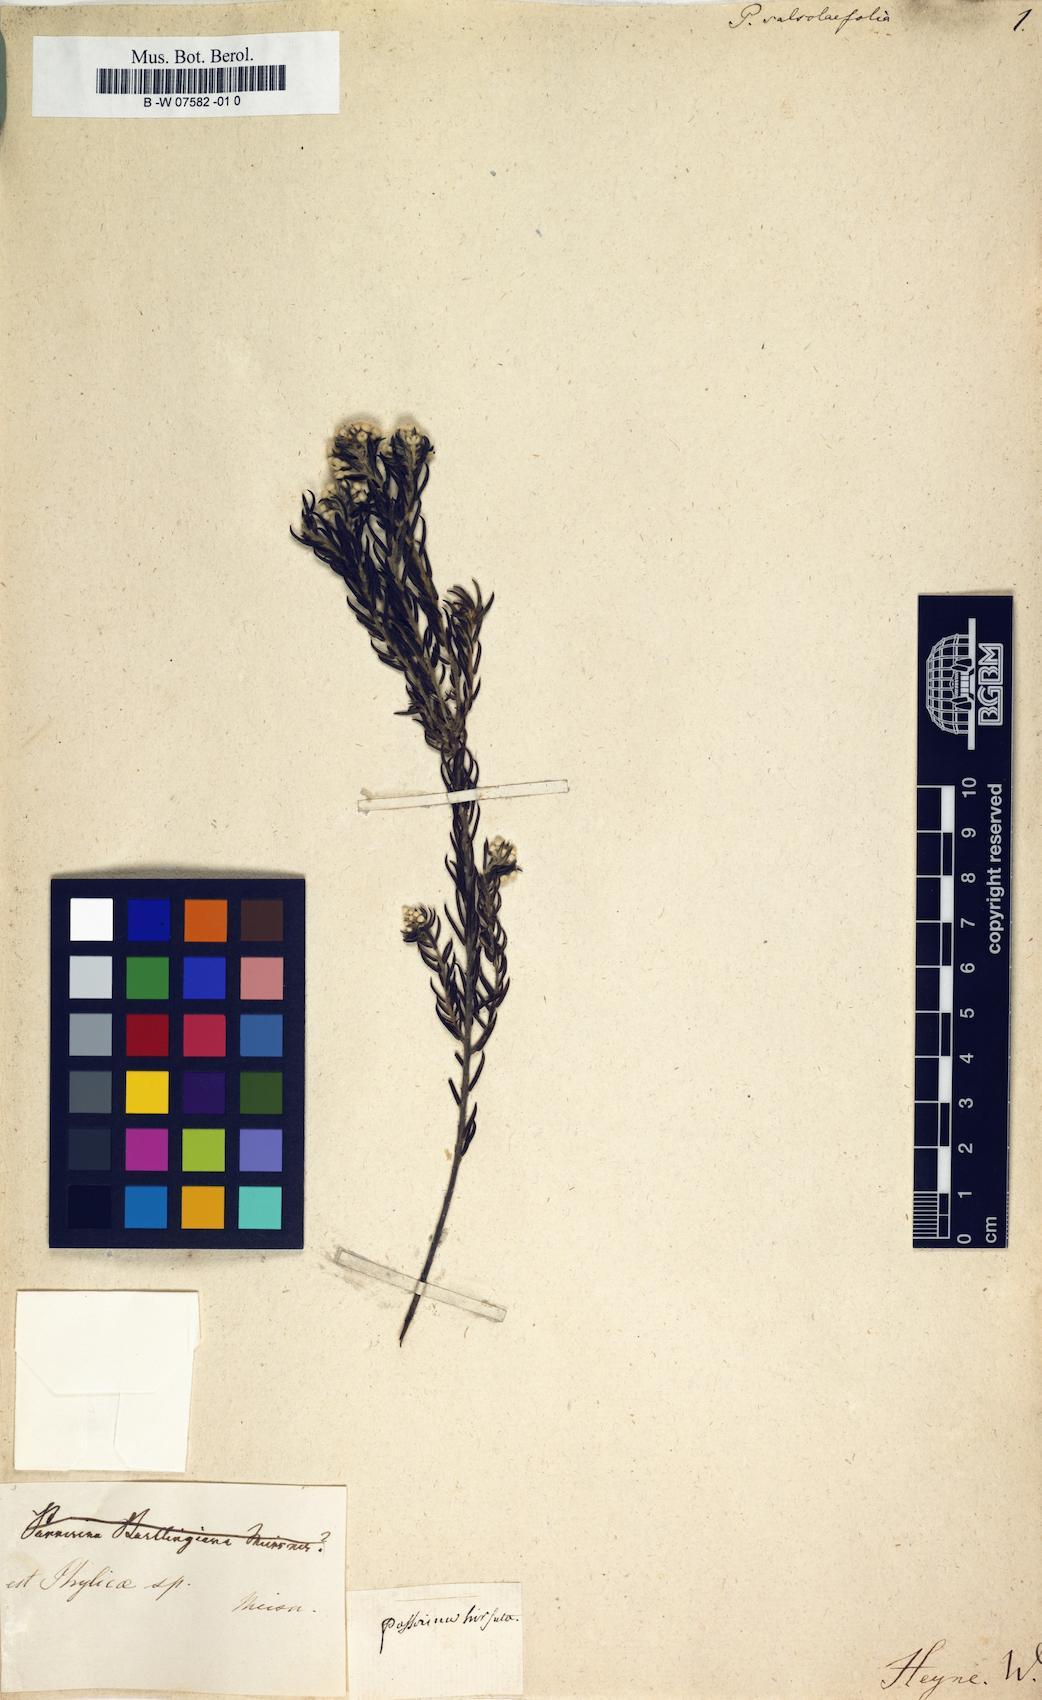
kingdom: Plantae
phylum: Tracheophyta
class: Magnoliopsida
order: Malvales
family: Thymelaeaceae
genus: Passerina
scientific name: Passerina salsolifolia
